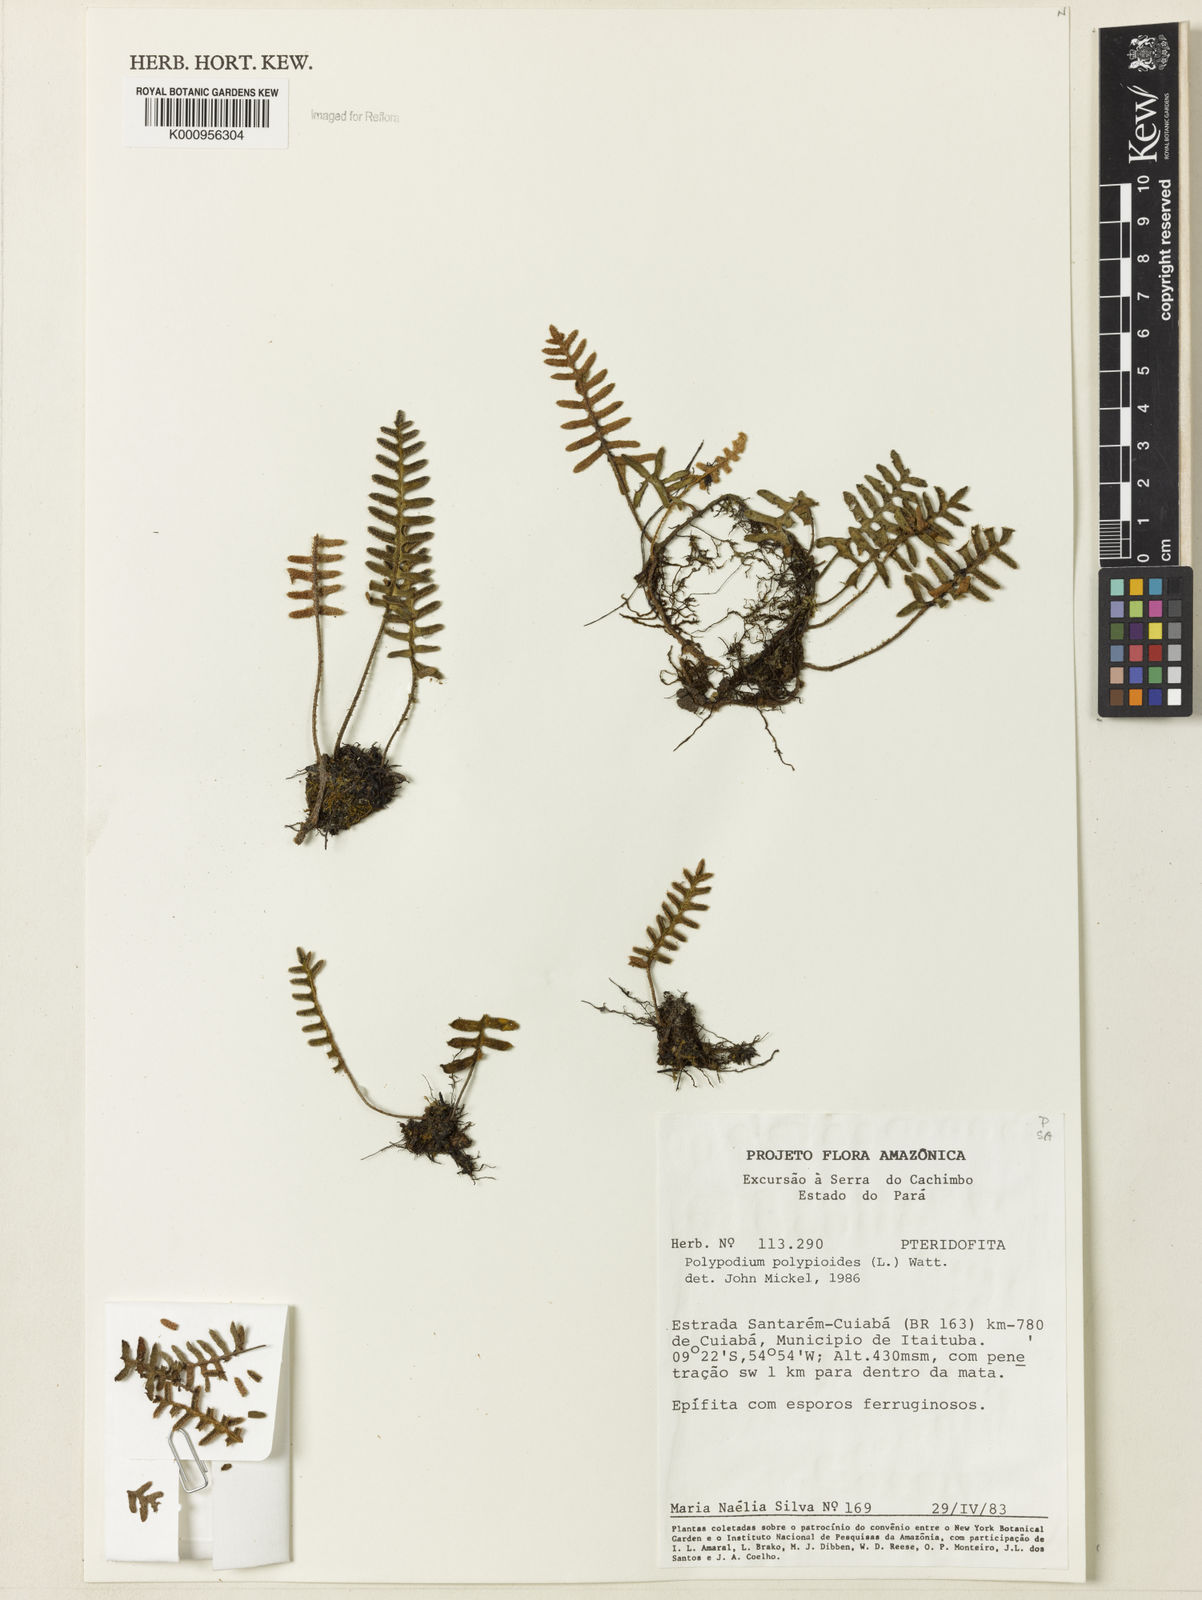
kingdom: Plantae
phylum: Tracheophyta
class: Polypodiopsida
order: Polypodiales
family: Polypodiaceae
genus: Pleopeltis
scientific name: Pleopeltis polypodioides
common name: Resurrection fern
